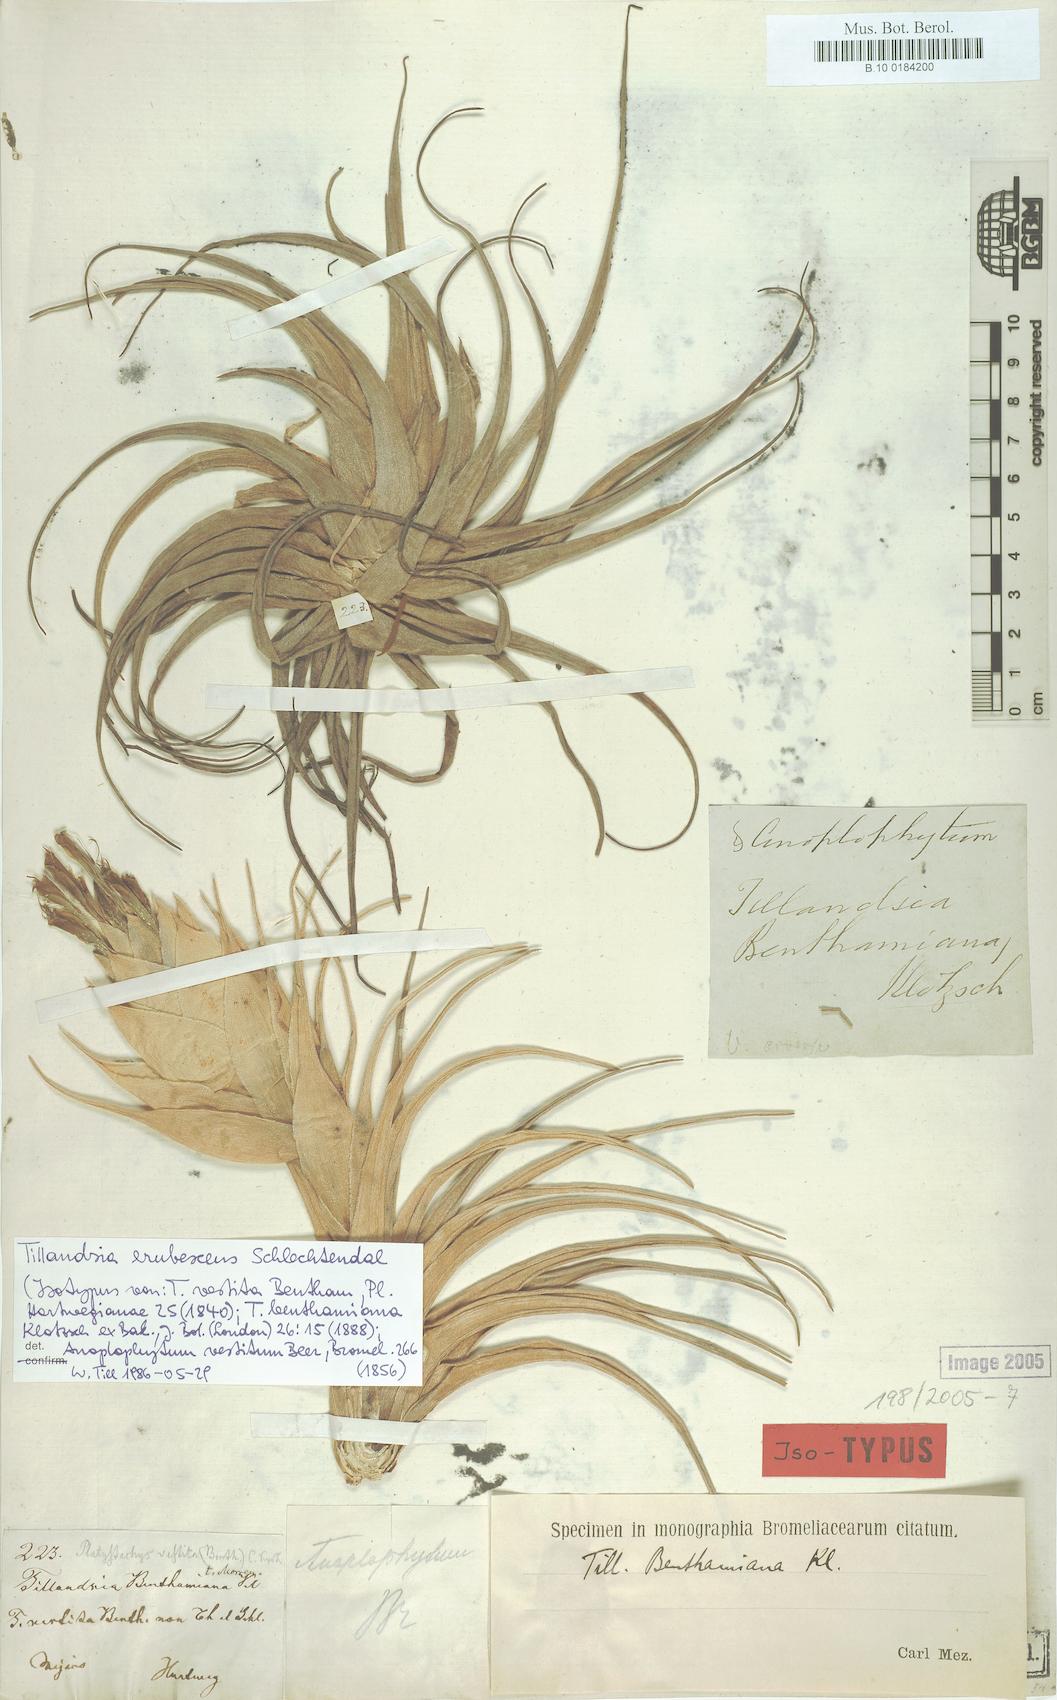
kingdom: Plantae
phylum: Tracheophyta
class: Liliopsida
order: Poales
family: Bromeliaceae
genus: Tillandsia
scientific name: Tillandsia erubescens
